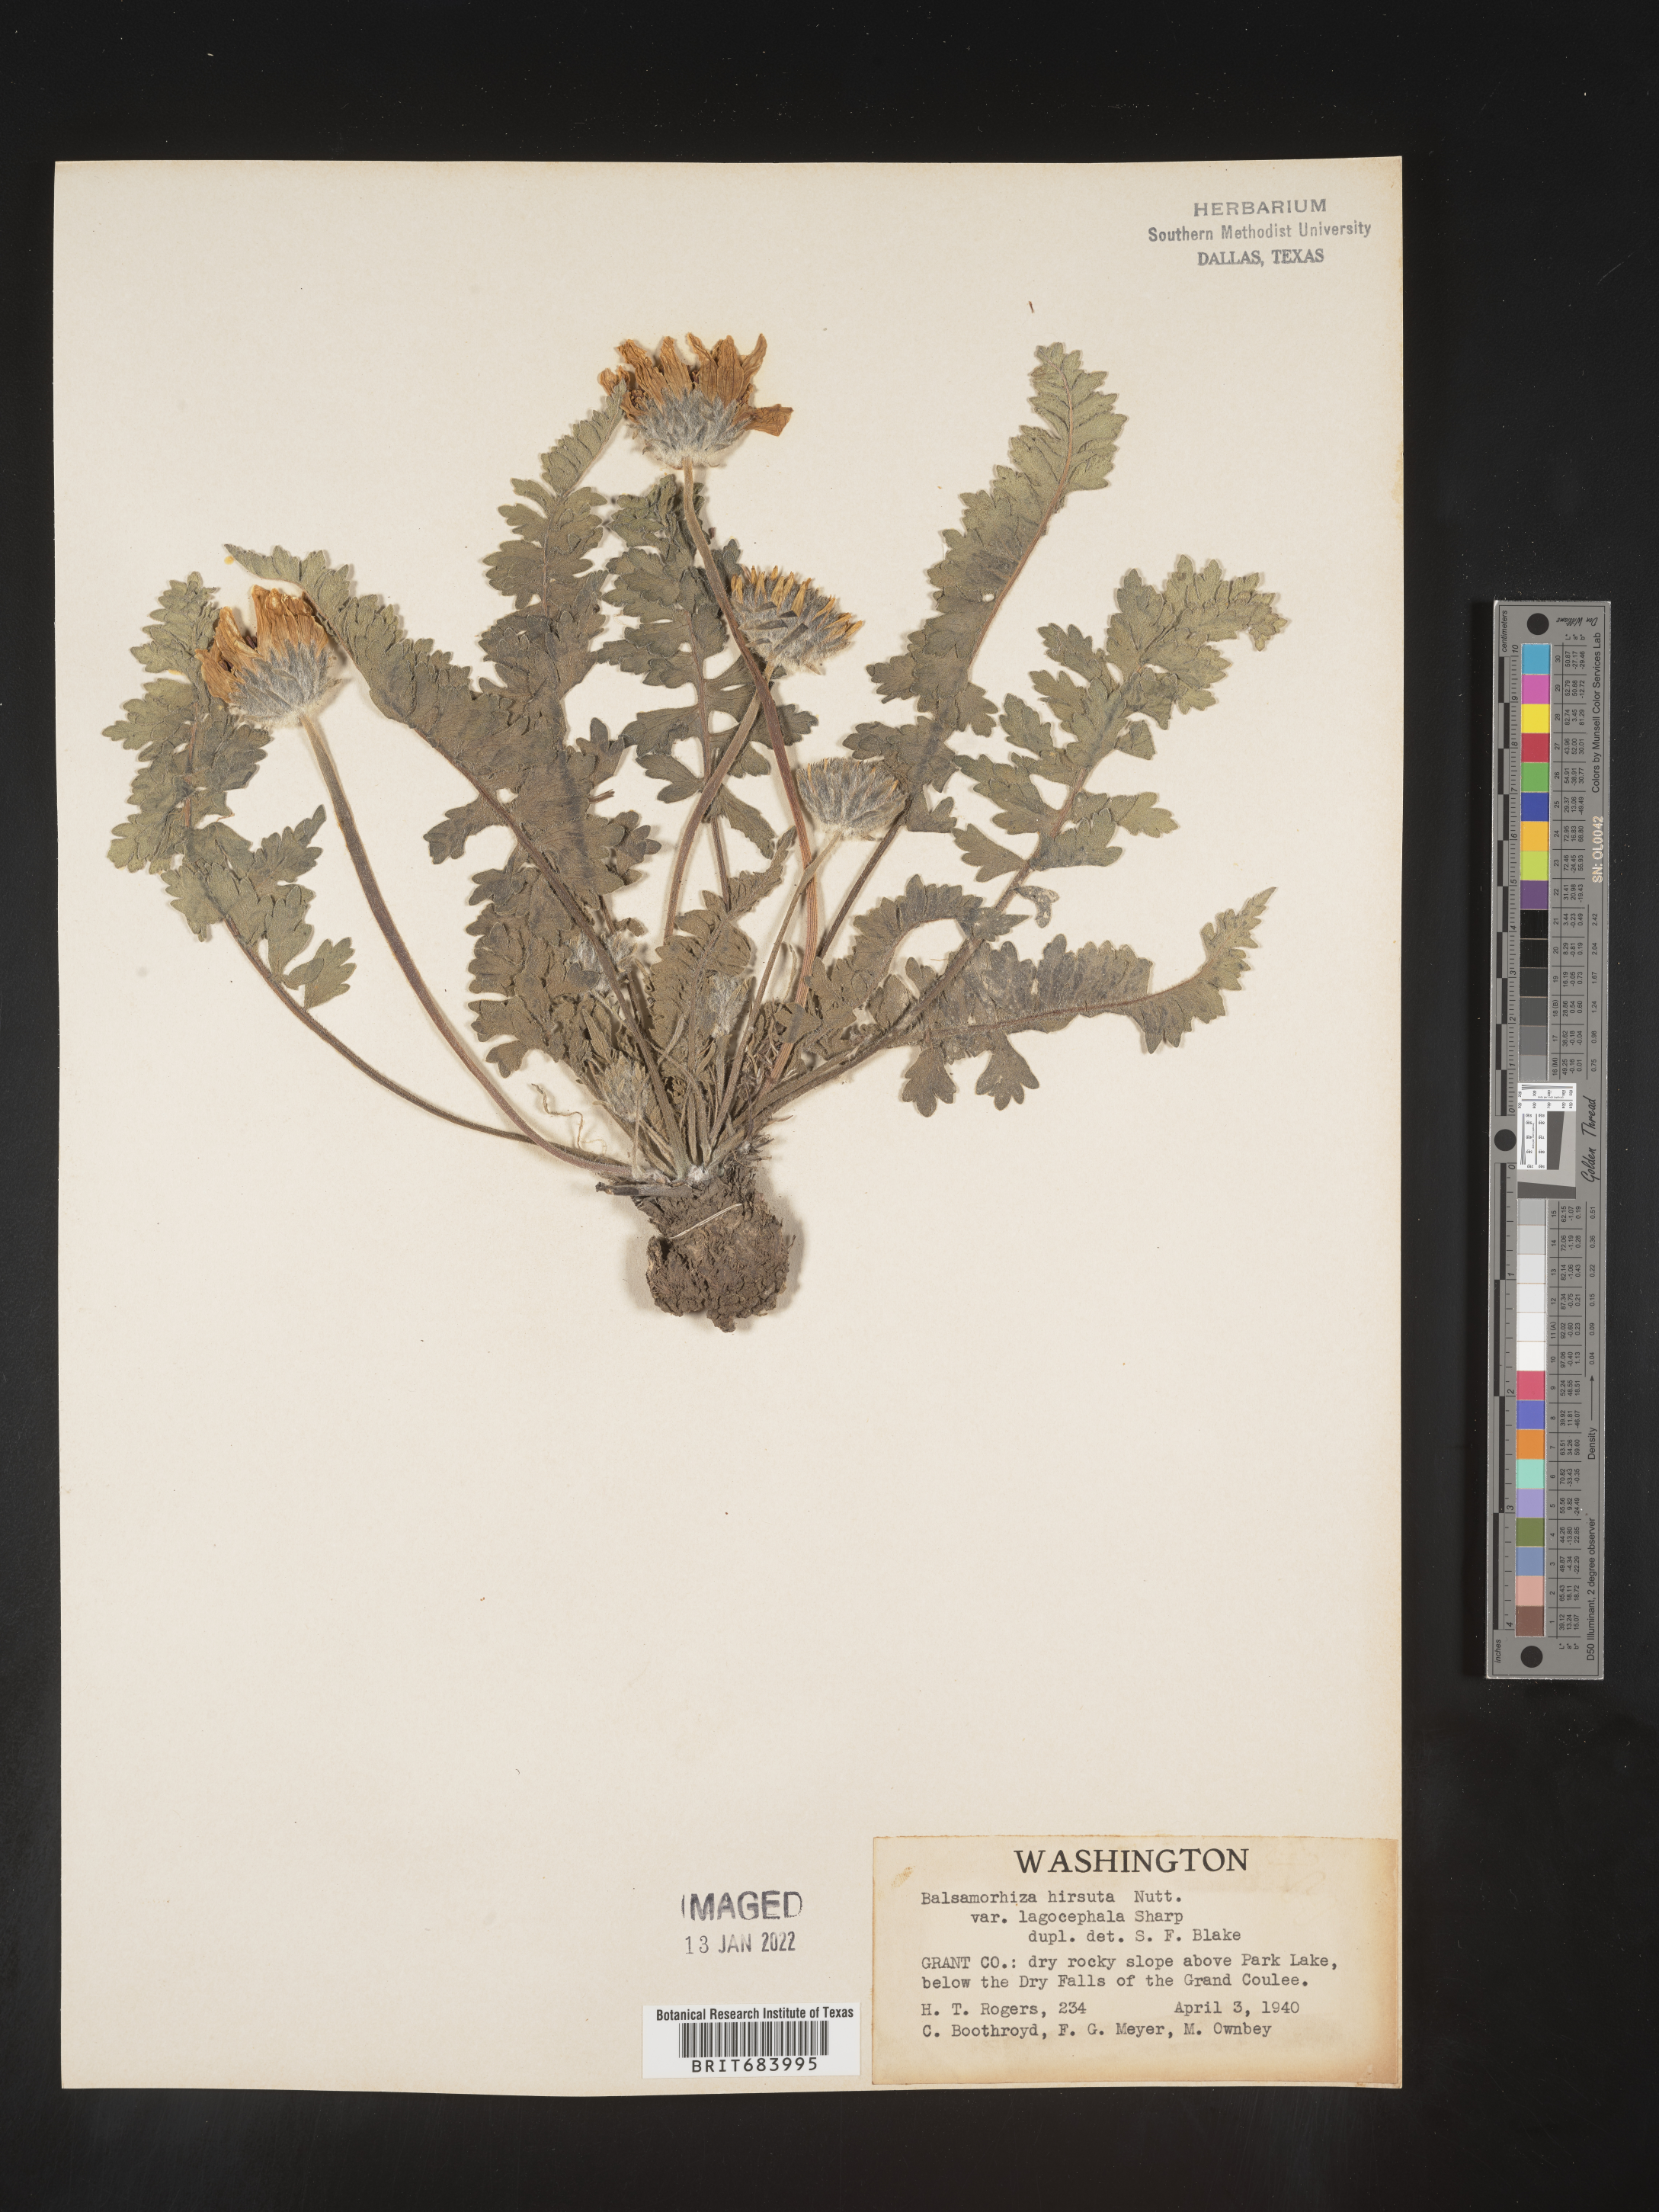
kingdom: Plantae
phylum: Tracheophyta
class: Magnoliopsida
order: Asterales
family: Asteraceae
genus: Balsamorhiza
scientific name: Balsamorhiza hookeri
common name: Hooker's balsamroot
